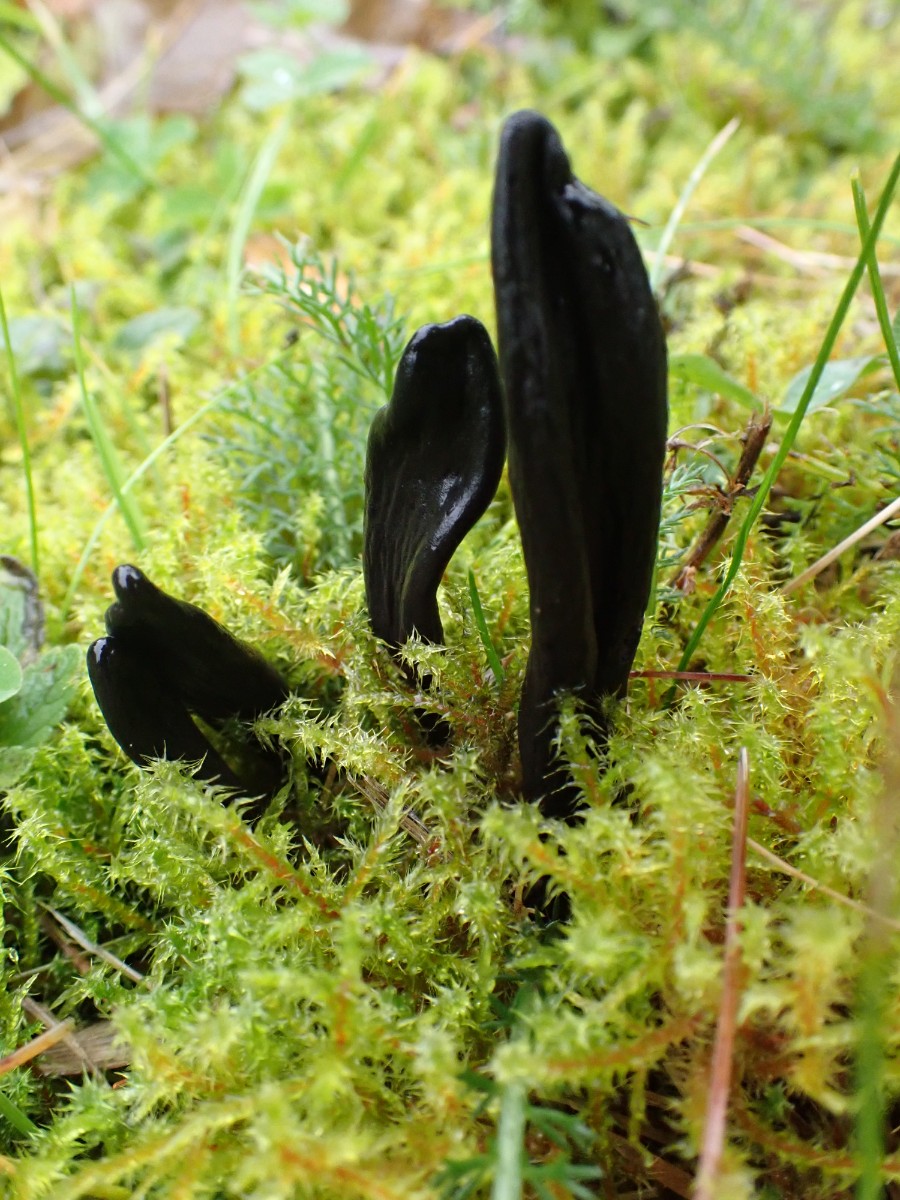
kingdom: Fungi
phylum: Ascomycota
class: Geoglossomycetes
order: Geoglossales
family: Geoglossaceae
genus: Geoglossum
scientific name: Geoglossum cookeianum
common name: bred jordtunge
